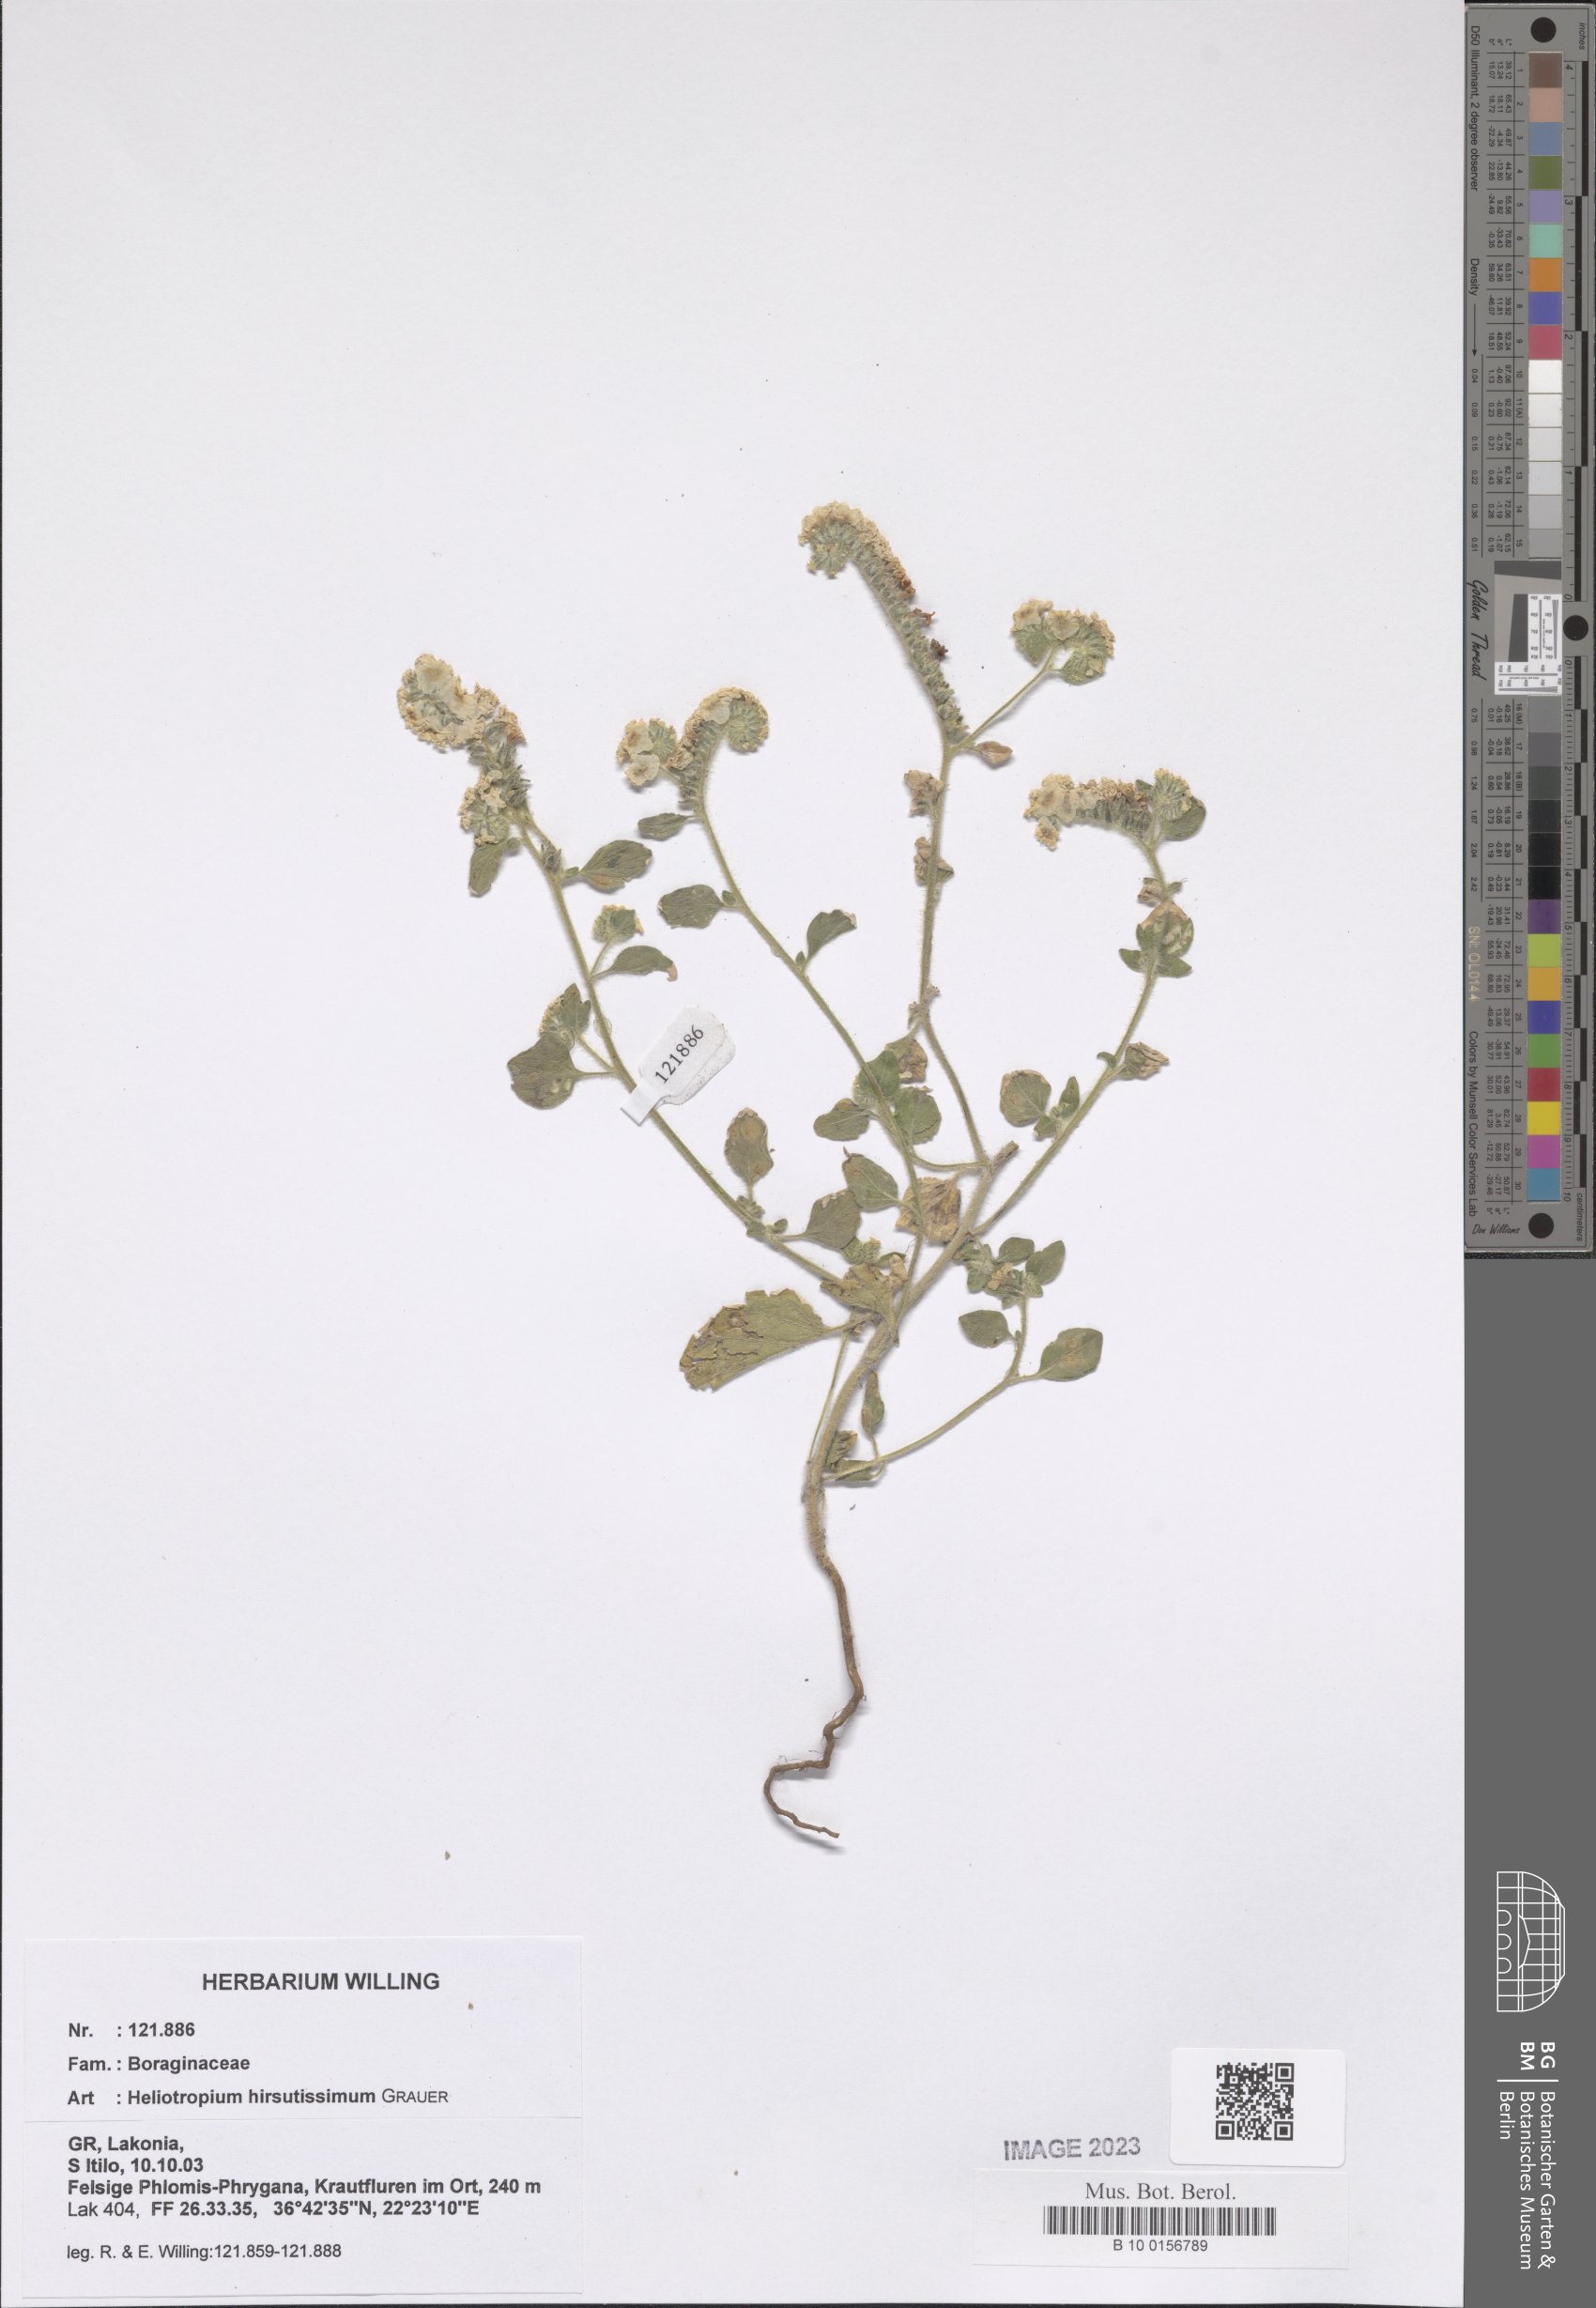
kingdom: Plantae
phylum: Tracheophyta
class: Magnoliopsida
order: Boraginales
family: Heliotropiaceae
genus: Heliotropium
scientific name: Heliotropium hirsutissimum
